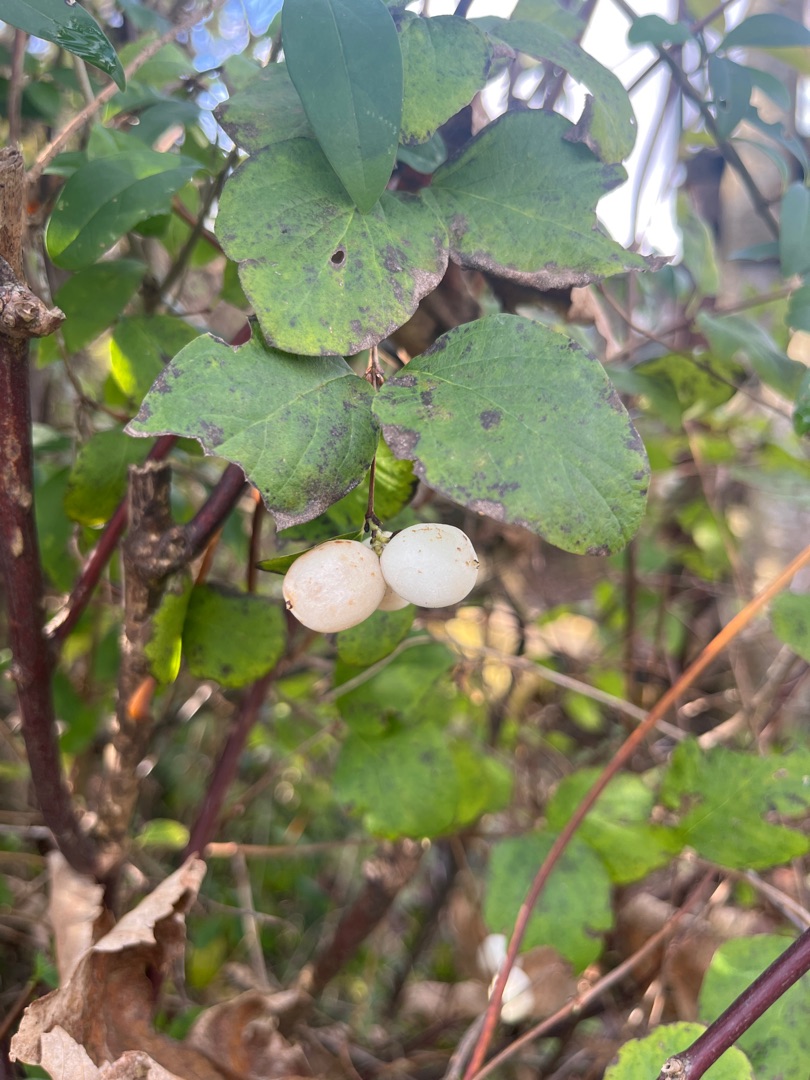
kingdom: Plantae
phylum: Tracheophyta
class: Magnoliopsida
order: Dipsacales
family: Caprifoliaceae
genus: Symphoricarpos
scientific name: Symphoricarpos albus
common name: Almindelig snebær
